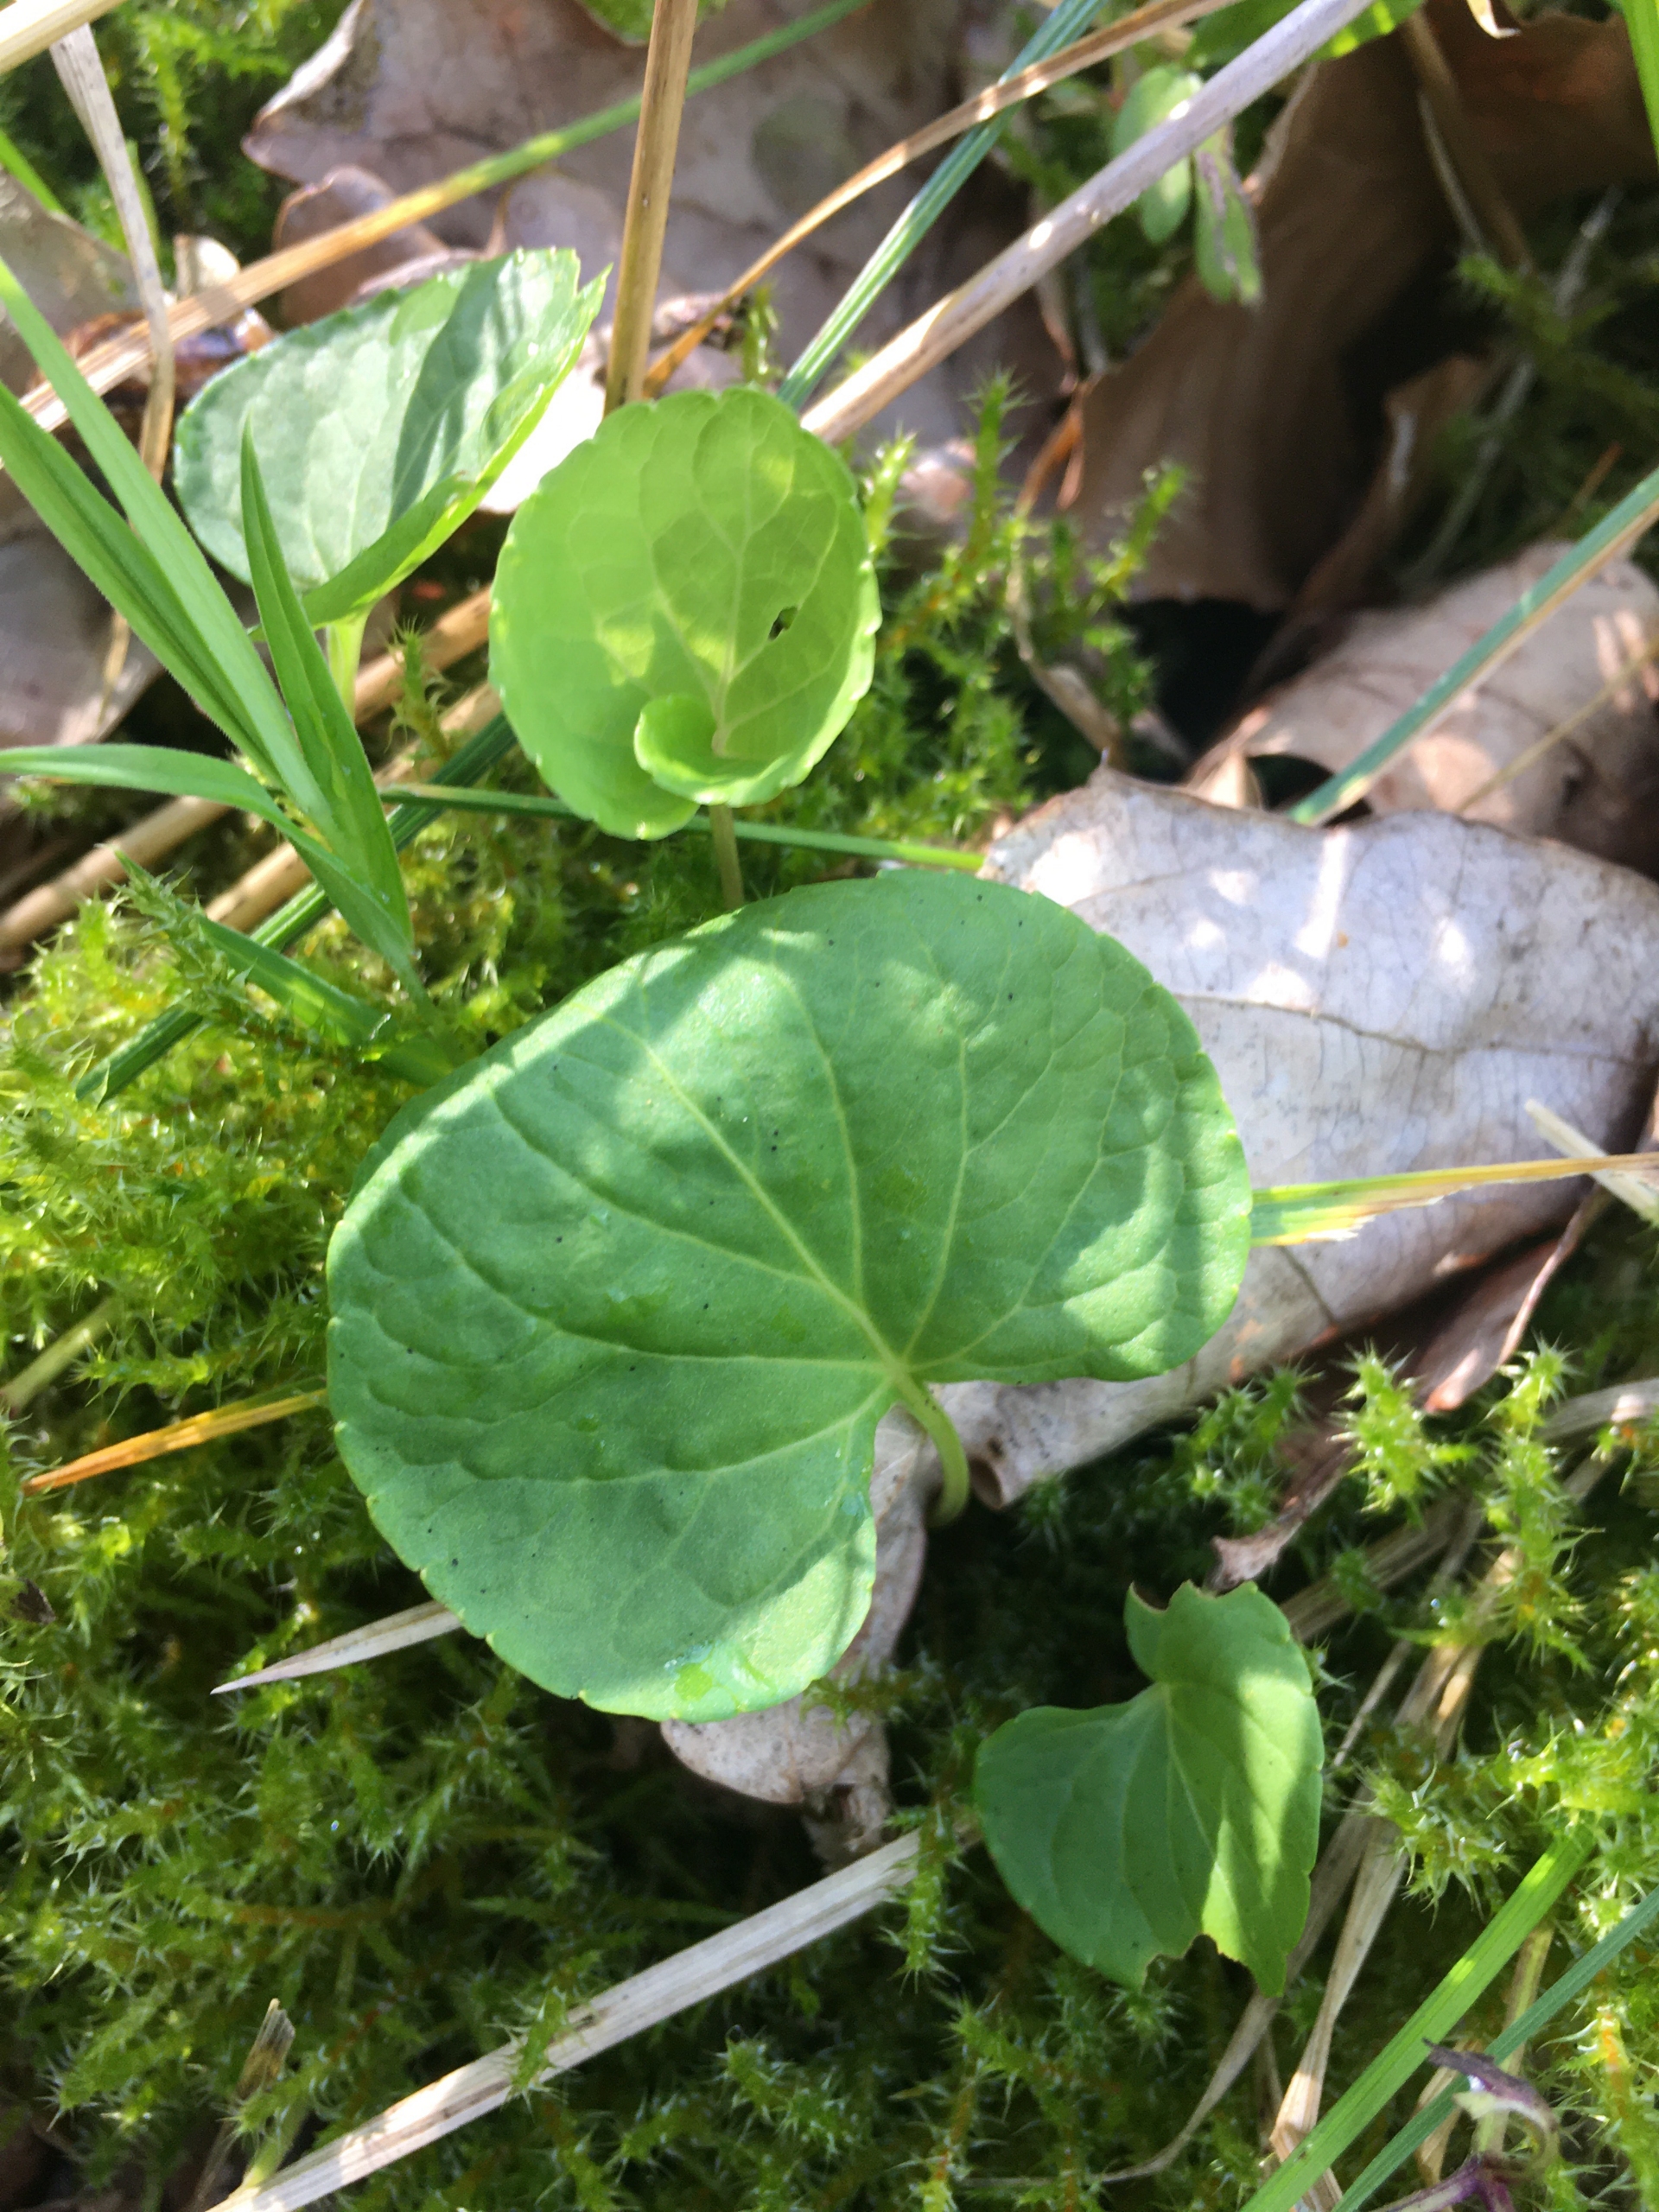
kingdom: Plantae
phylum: Tracheophyta
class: Magnoliopsida
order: Malpighiales
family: Violaceae
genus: Viola
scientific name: Viola palustris
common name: Eng-viol
